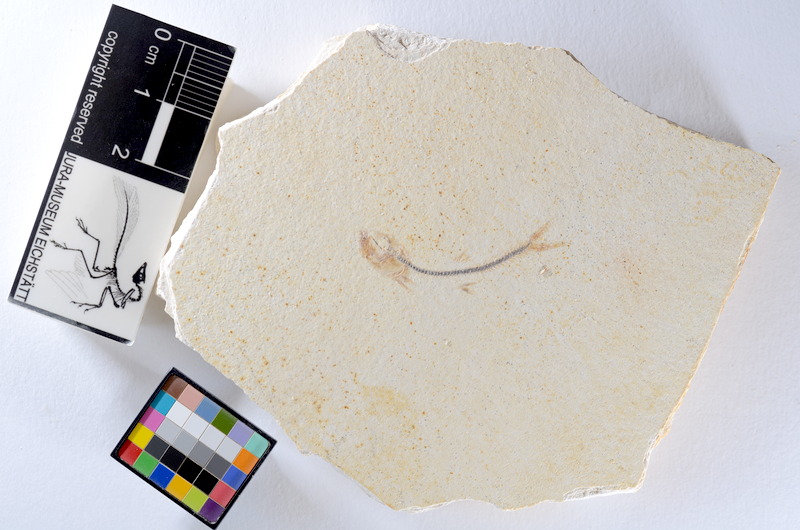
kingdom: Animalia
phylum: Chordata
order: Salmoniformes
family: Orthogonikleithridae
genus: Orthogonikleithrus
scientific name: Orthogonikleithrus hoelli
